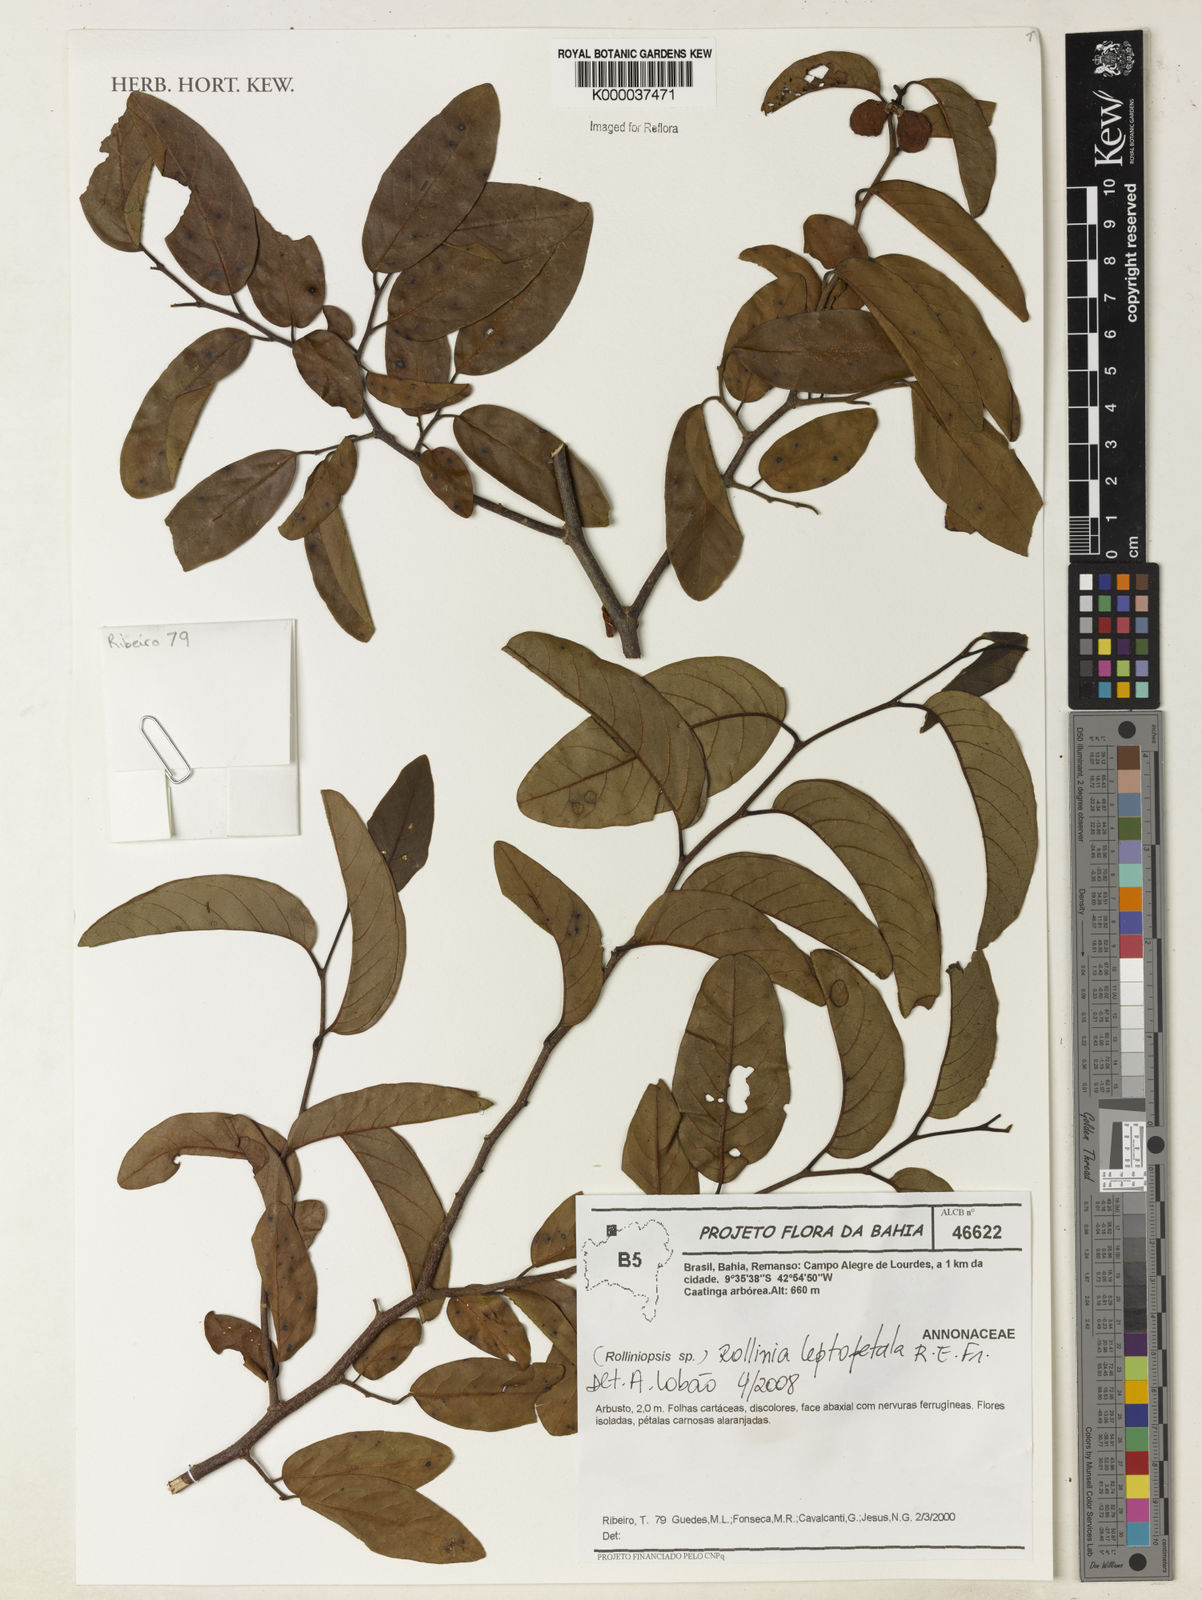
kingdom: Plantae
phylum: Tracheophyta
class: Magnoliopsida
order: Magnoliales
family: Annonaceae
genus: Annona
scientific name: Annona leptopetala
